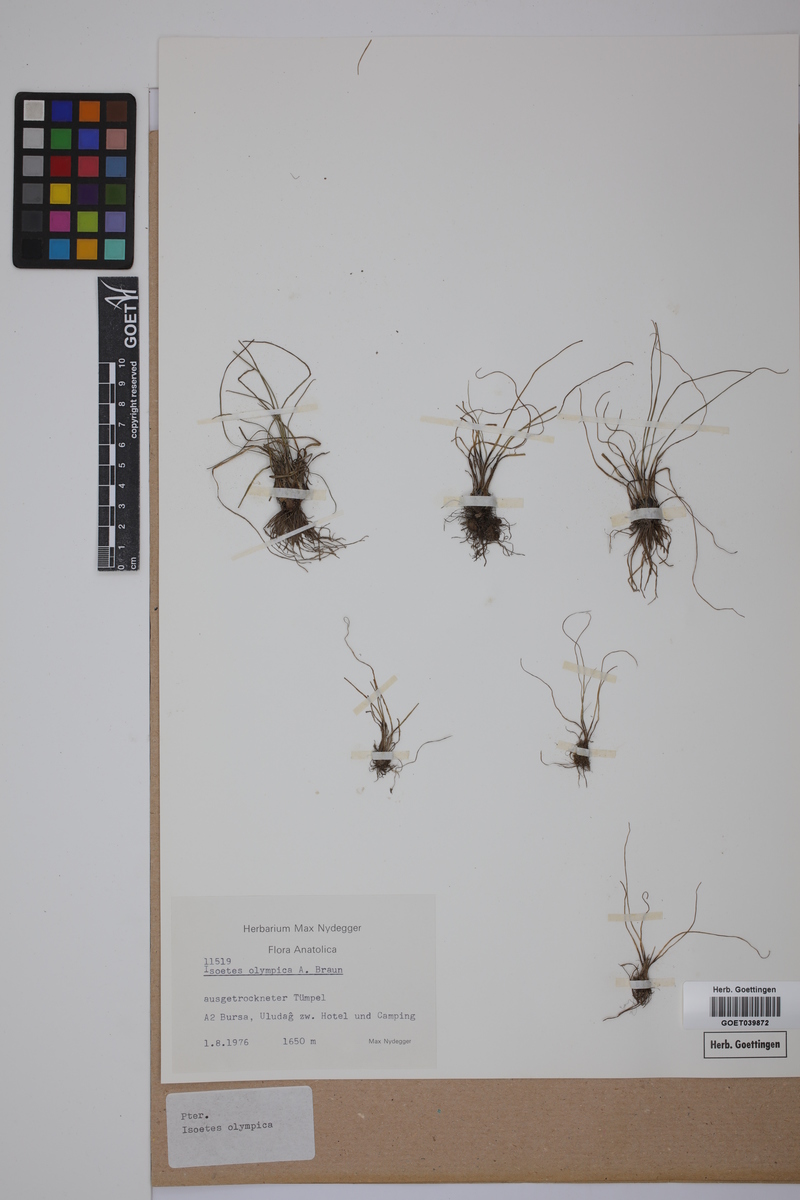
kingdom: Plantae
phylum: Tracheophyta
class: Lycopodiopsida
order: Isoetales
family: Isoetaceae
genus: Isoetes
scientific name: Isoetes olympica
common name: Olympic quillwort
